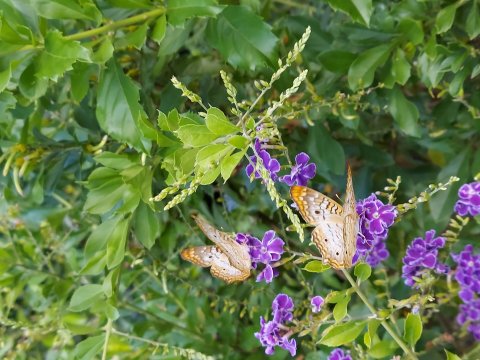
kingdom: Animalia
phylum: Arthropoda
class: Insecta
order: Lepidoptera
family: Nymphalidae
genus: Anartia
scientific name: Anartia jatrophae
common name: White Peacock
